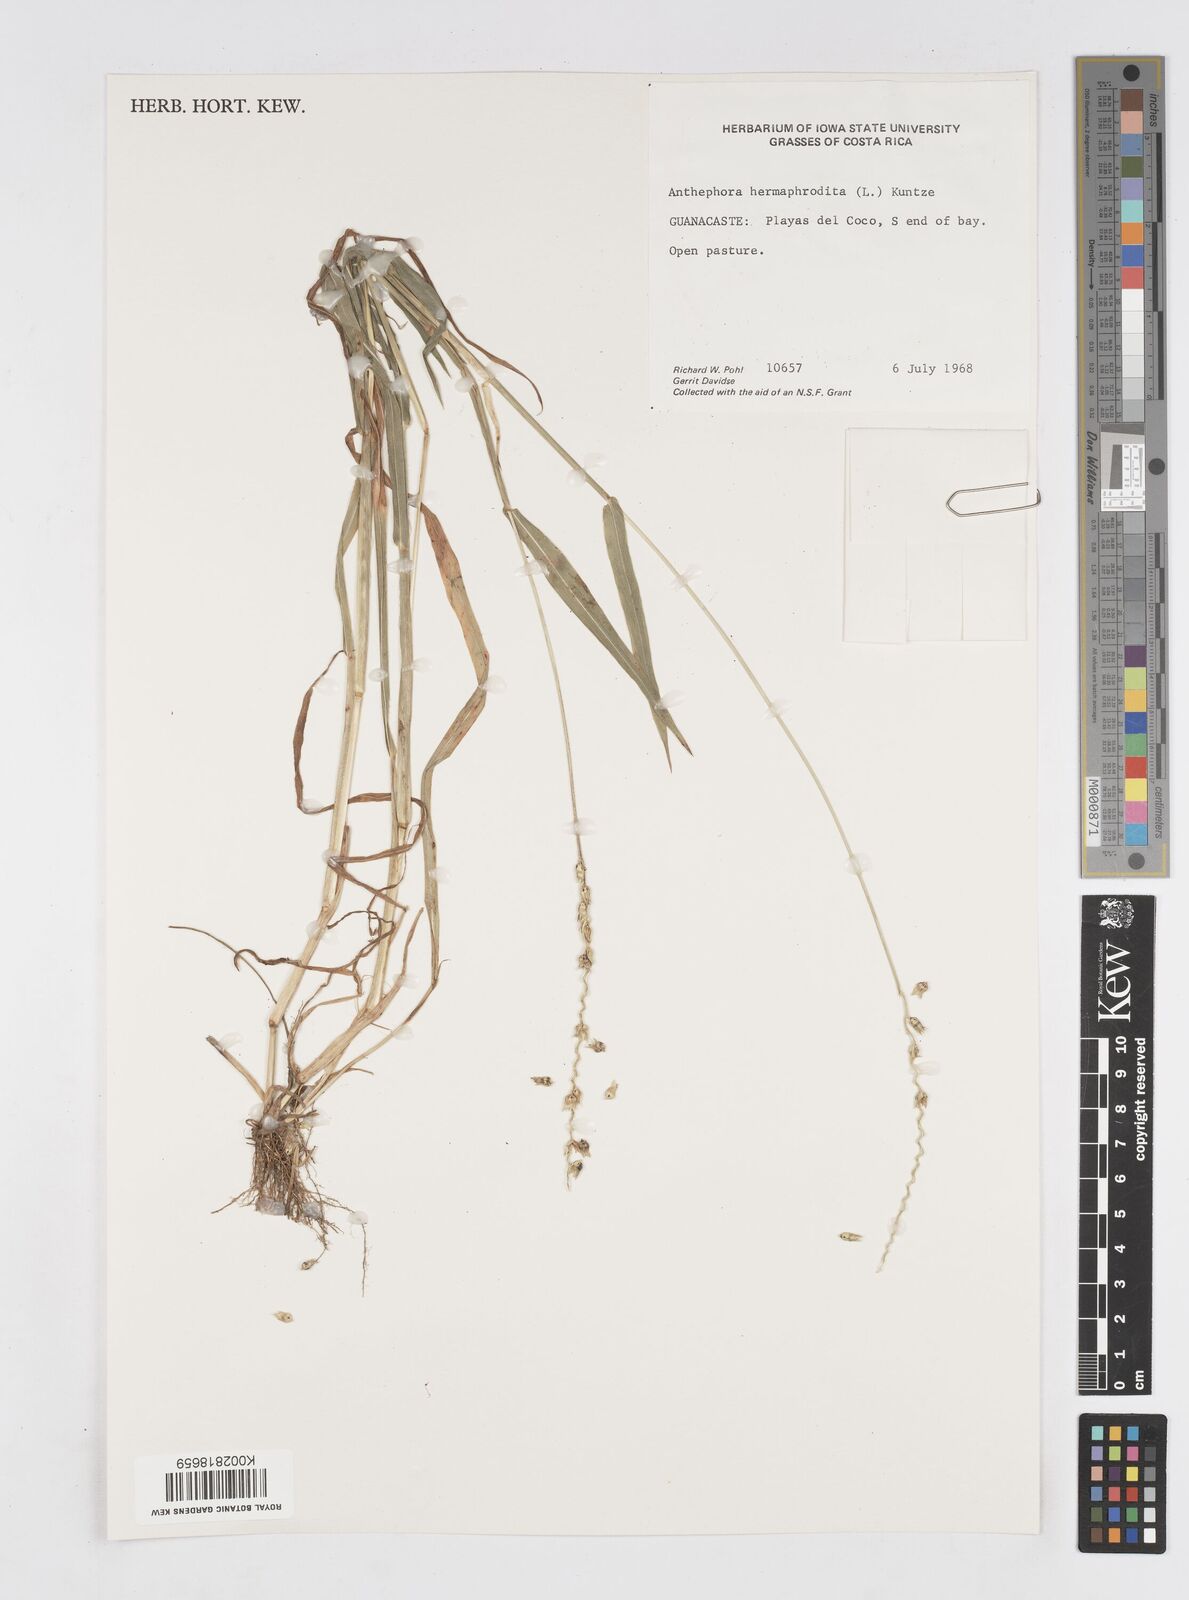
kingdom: Plantae
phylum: Tracheophyta
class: Liliopsida
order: Poales
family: Poaceae
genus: Anthephora
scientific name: Anthephora hermaphrodita
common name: Oldfield grass
